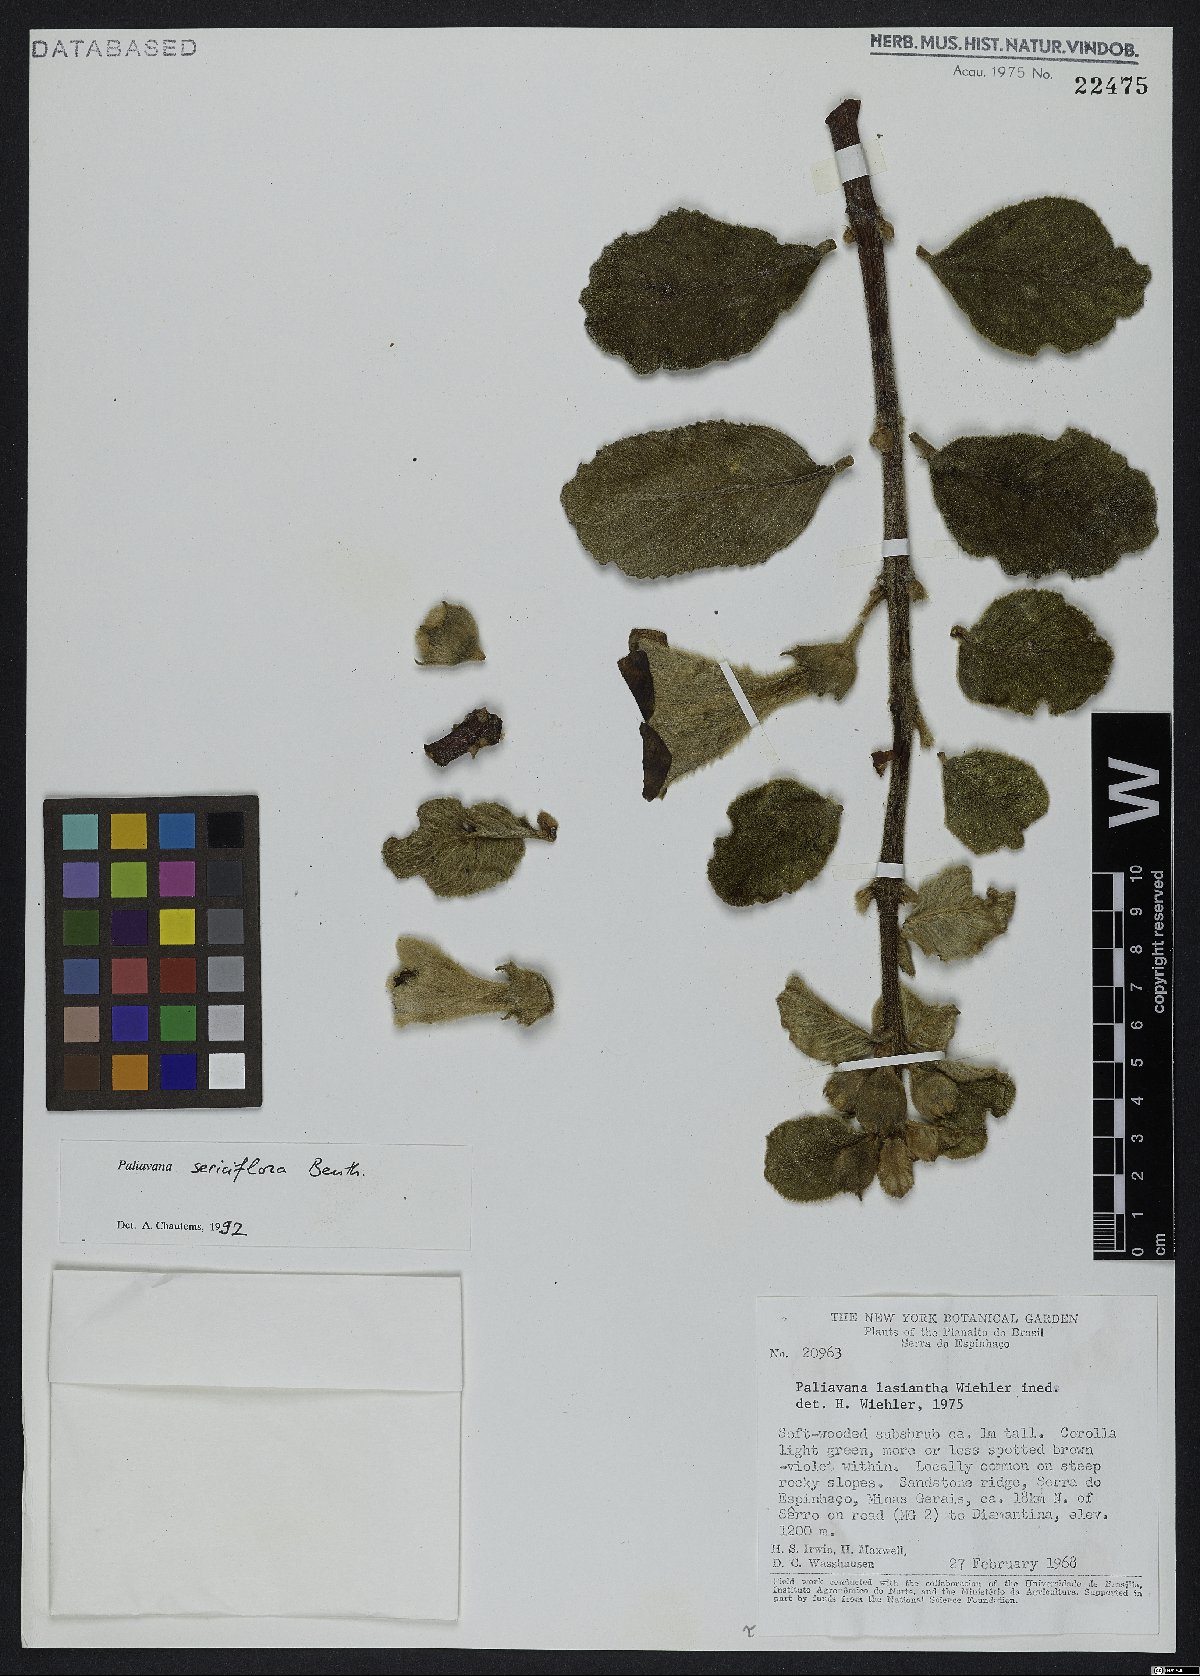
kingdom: Plantae
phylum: Tracheophyta
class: Magnoliopsida
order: Lamiales
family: Gesneriaceae
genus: Paliavana
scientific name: Paliavana sericiflora
